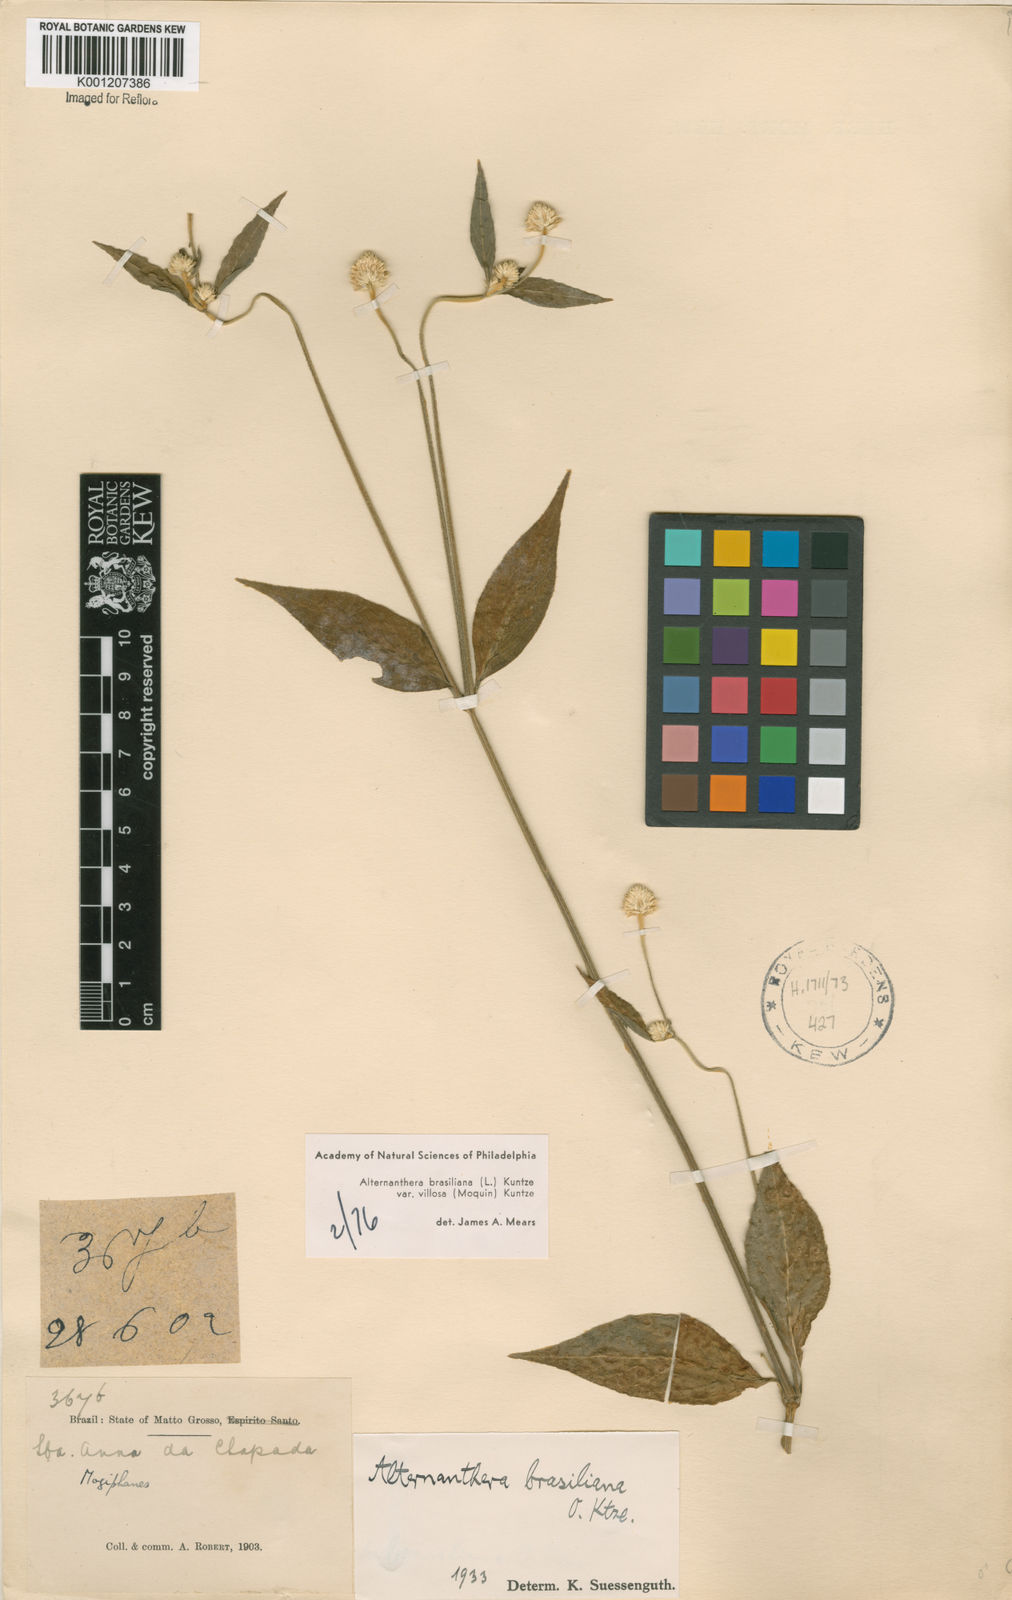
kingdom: Plantae
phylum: Tracheophyta
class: Magnoliopsida
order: Caryophyllales
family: Amaranthaceae
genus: Alternanthera
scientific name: Alternanthera ramosissima
